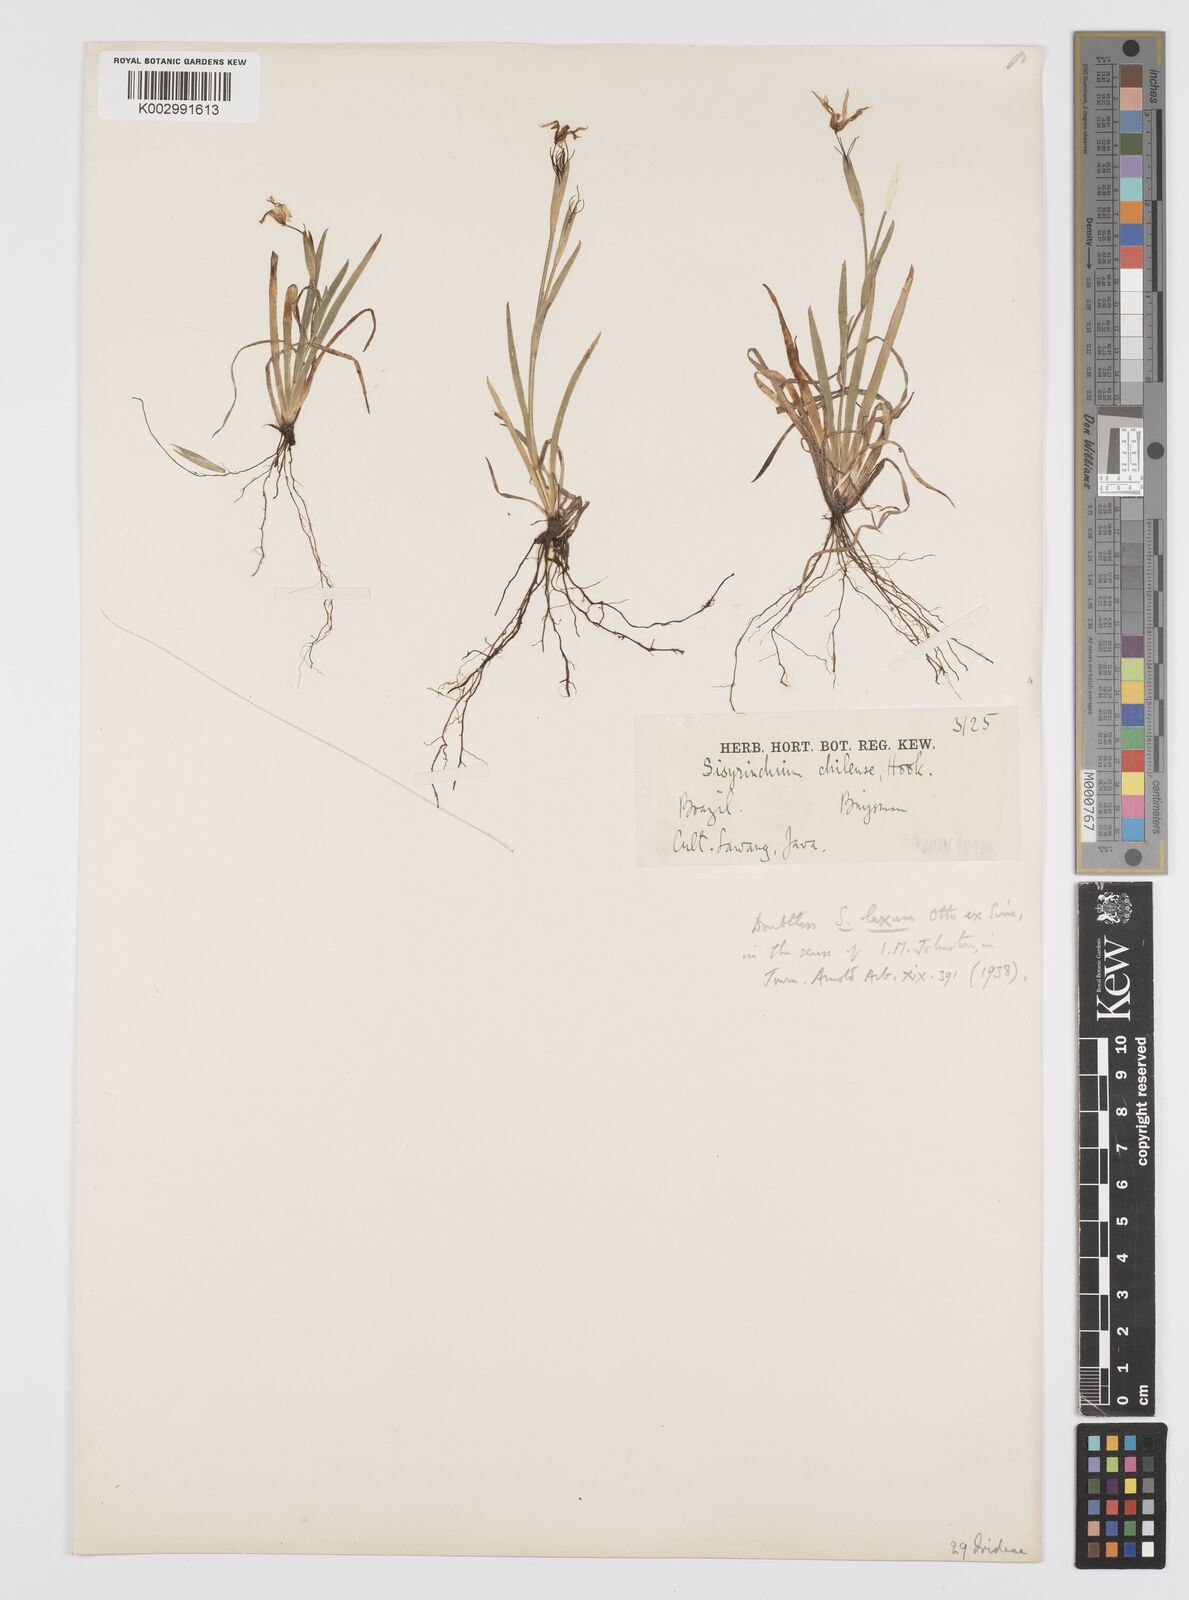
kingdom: Plantae
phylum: Tracheophyta
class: Liliopsida
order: Asparagales
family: Iridaceae
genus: Sisyrinchium
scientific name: Sisyrinchium laxum
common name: Veined yellow-eyed-grass
